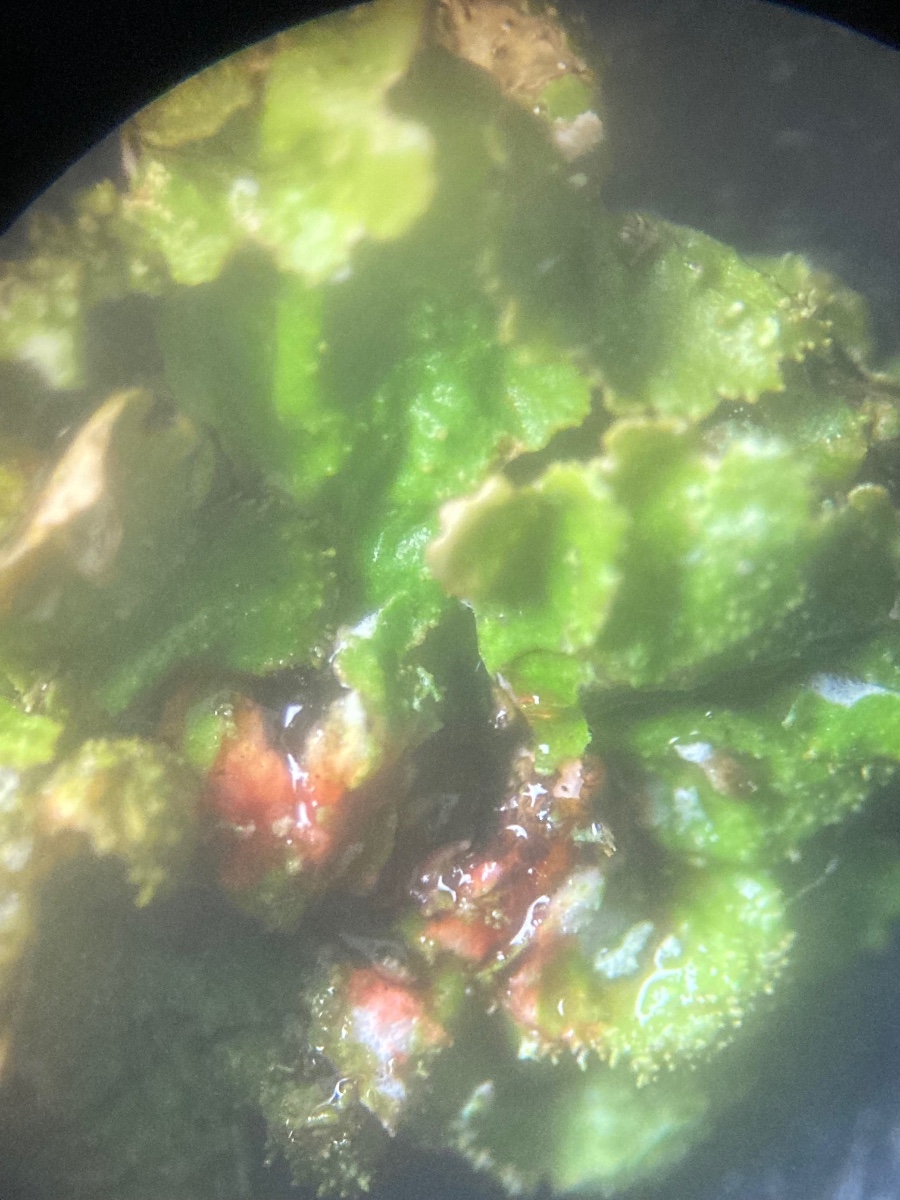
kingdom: Fungi
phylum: Ascomycota
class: Lecanoromycetes
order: Lecanorales
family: Parmeliaceae
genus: Melanelixia
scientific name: Melanelixia glabratula
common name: glinsende skållav
